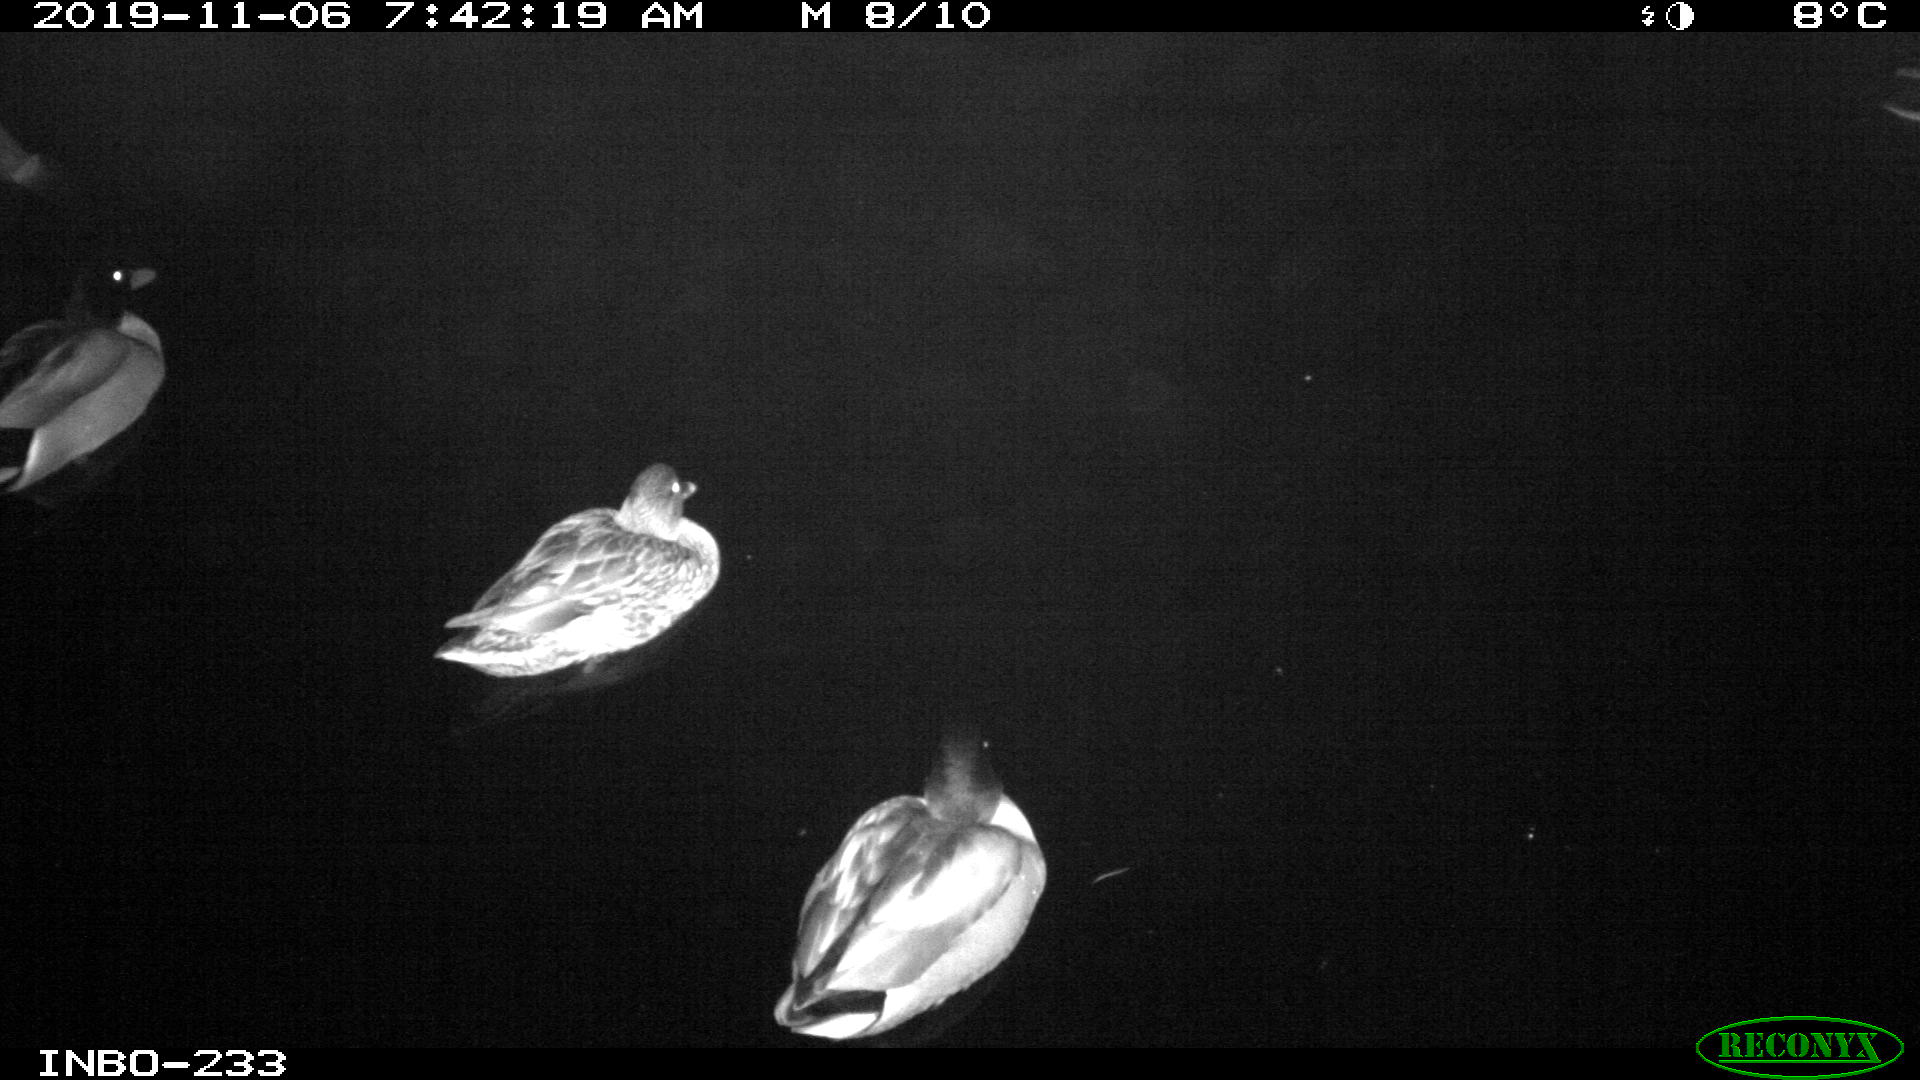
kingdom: Animalia
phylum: Chordata
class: Aves
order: Anseriformes
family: Anatidae
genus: Anas
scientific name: Anas platyrhynchos
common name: Mallard
